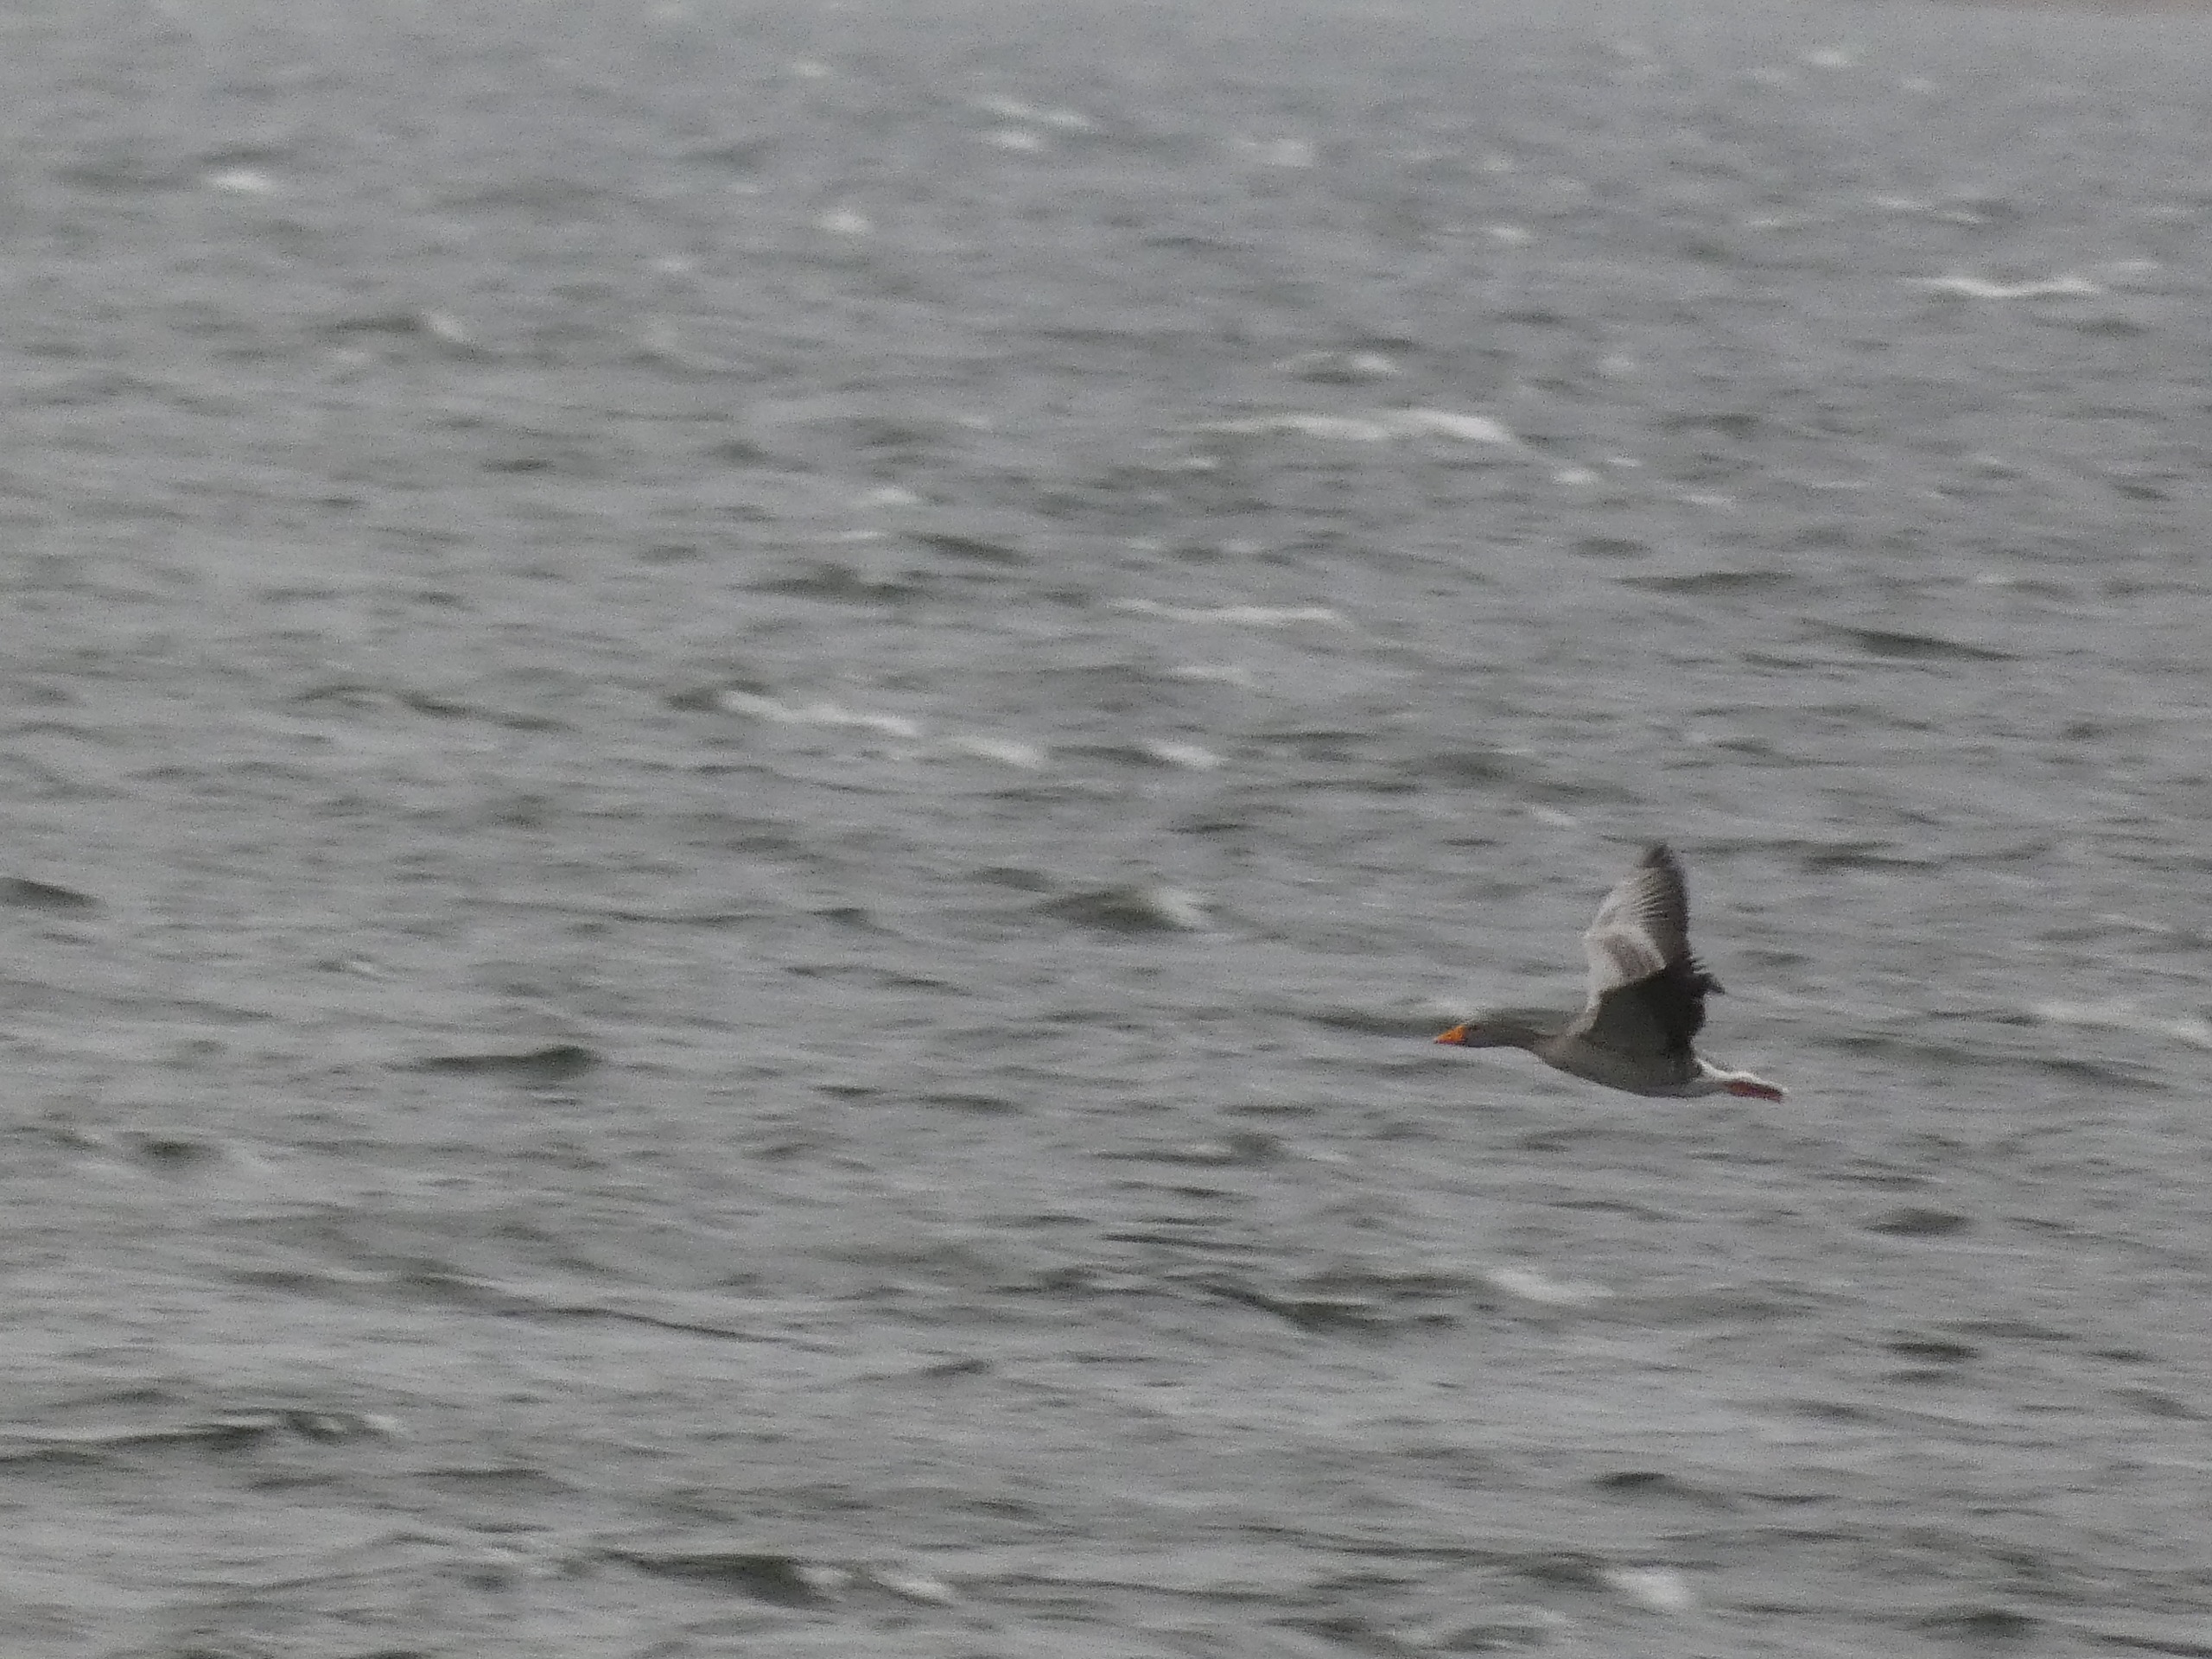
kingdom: Animalia
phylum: Chordata
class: Aves
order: Anseriformes
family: Anatidae
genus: Anser
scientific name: Anser anser
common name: Grågås
